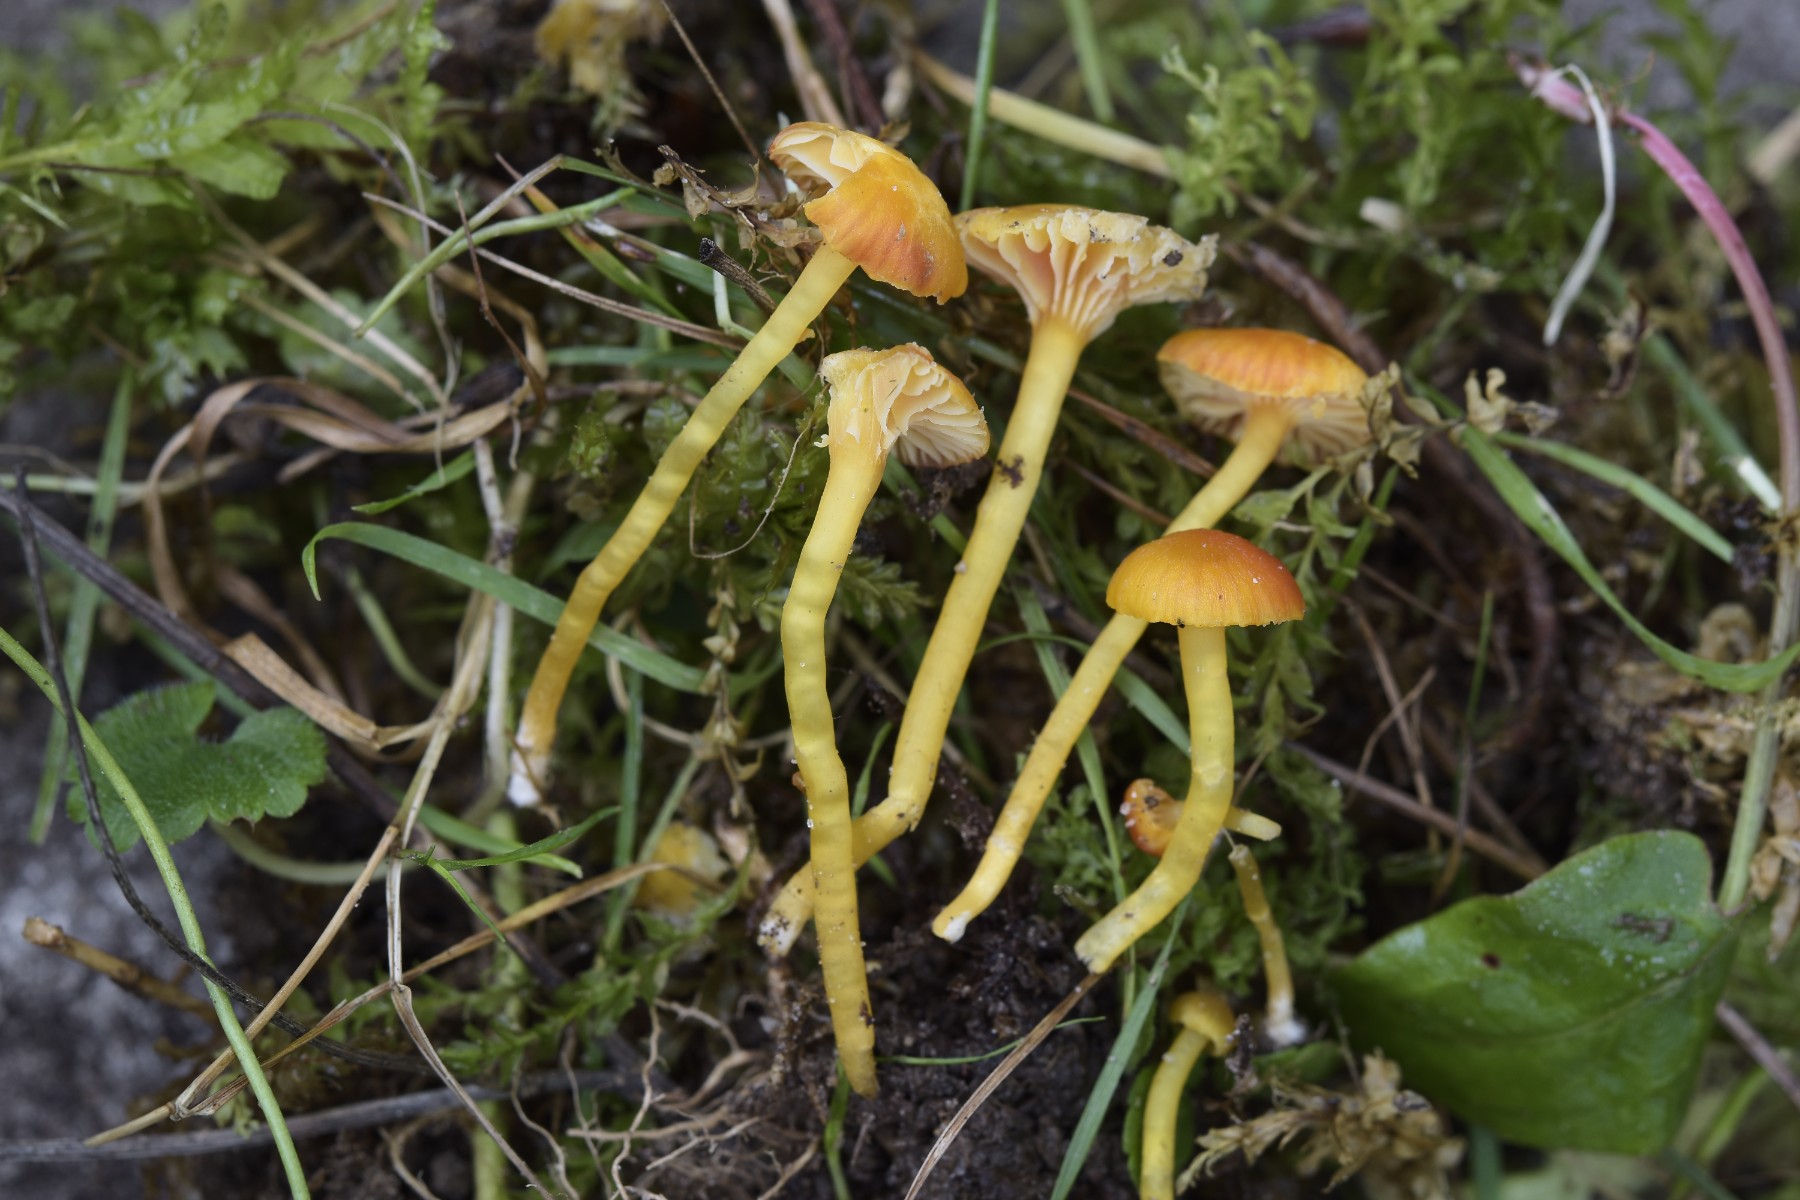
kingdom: Fungi
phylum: Basidiomycota
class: Agaricomycetes
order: Agaricales
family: Hygrophoraceae
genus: Hygrocybe
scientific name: Hygrocybe insipida
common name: liden vokshat
